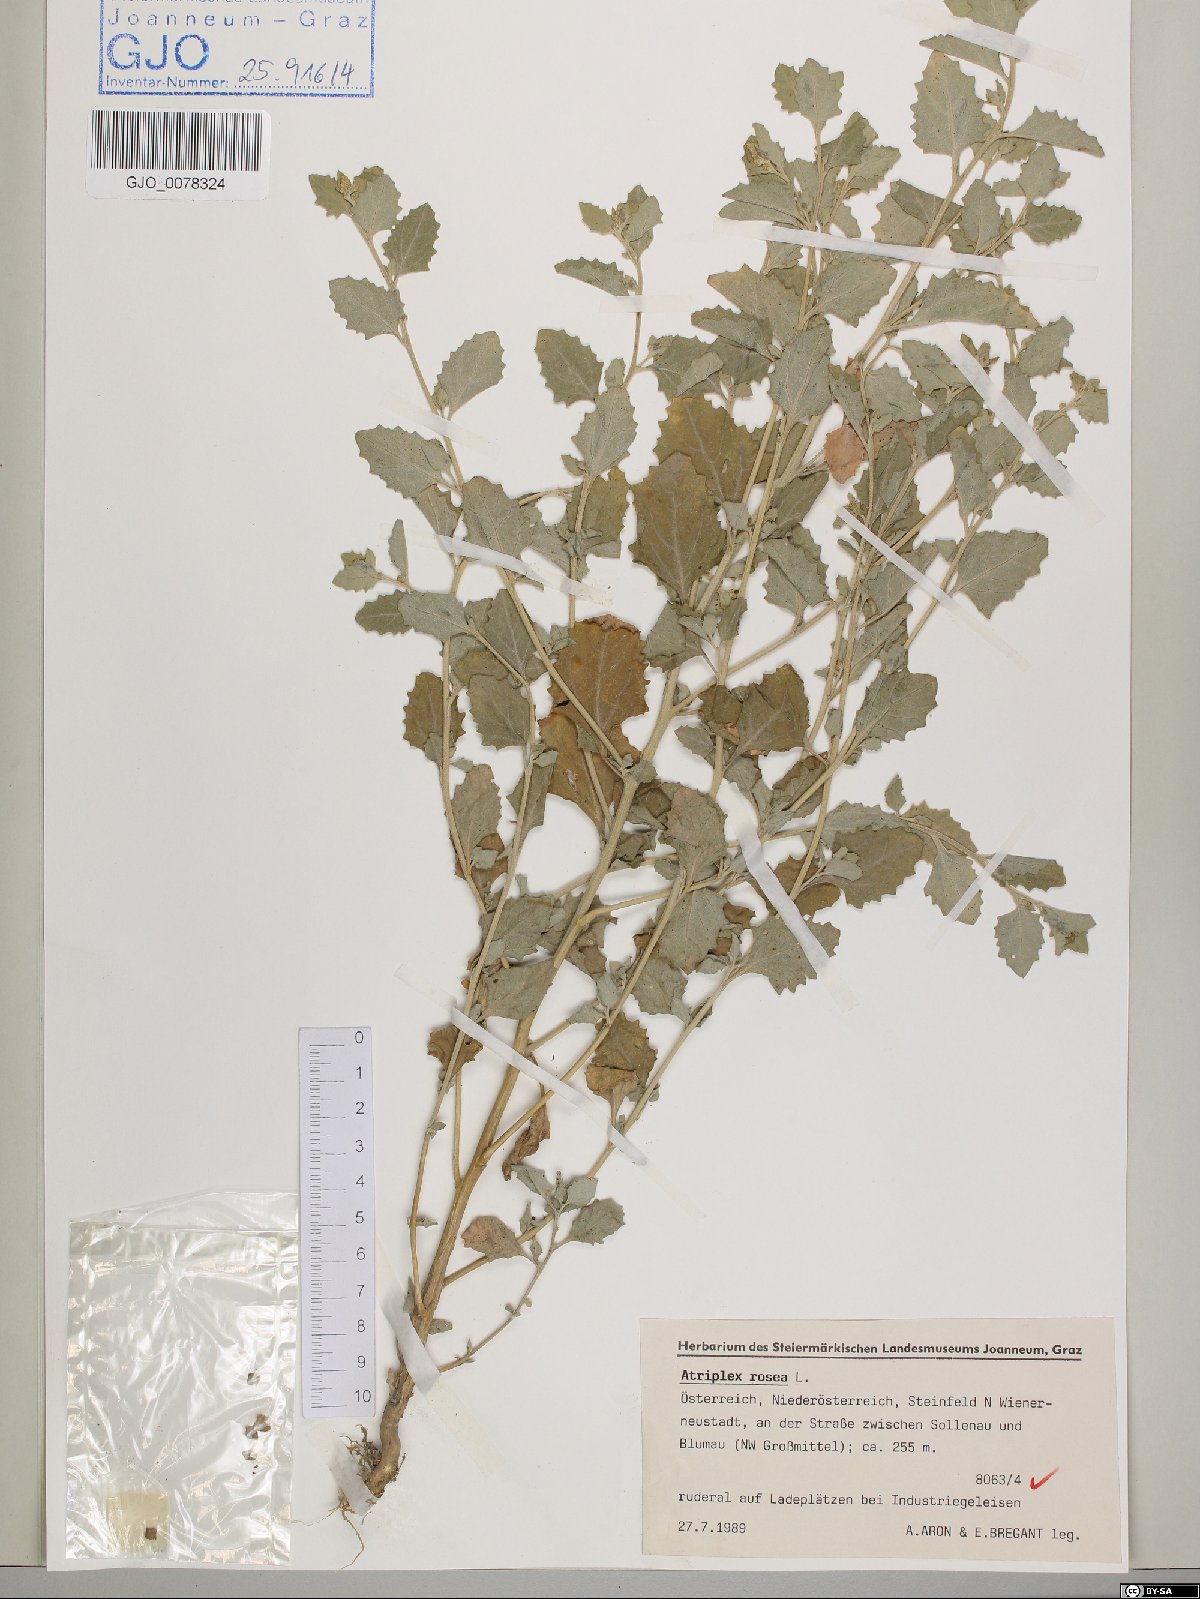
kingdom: Plantae
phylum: Tracheophyta
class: Magnoliopsida
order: Caryophyllales
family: Amaranthaceae
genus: Atriplex
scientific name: Atriplex rosea
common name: Tumbling saltweed
